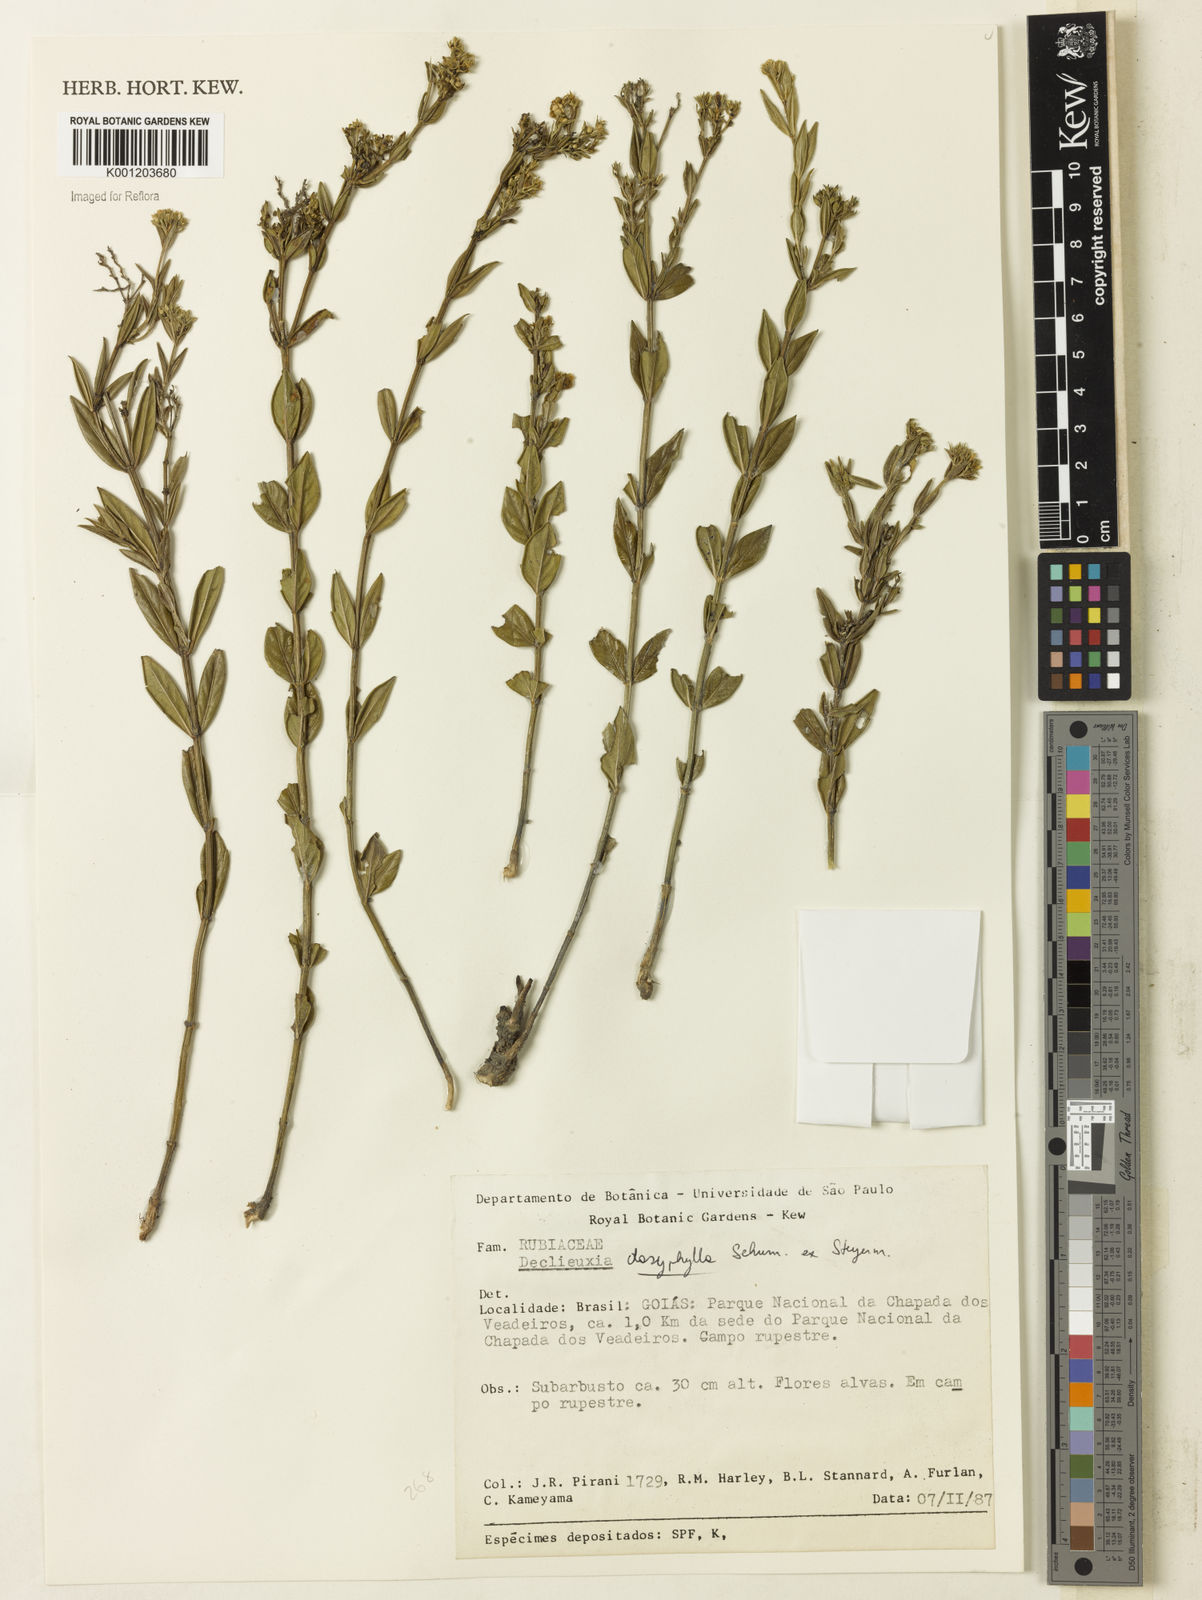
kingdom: Plantae
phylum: Tracheophyta
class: Magnoliopsida
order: Gentianales
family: Rubiaceae
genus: Declieuxia
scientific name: Declieuxia dasyphylla
